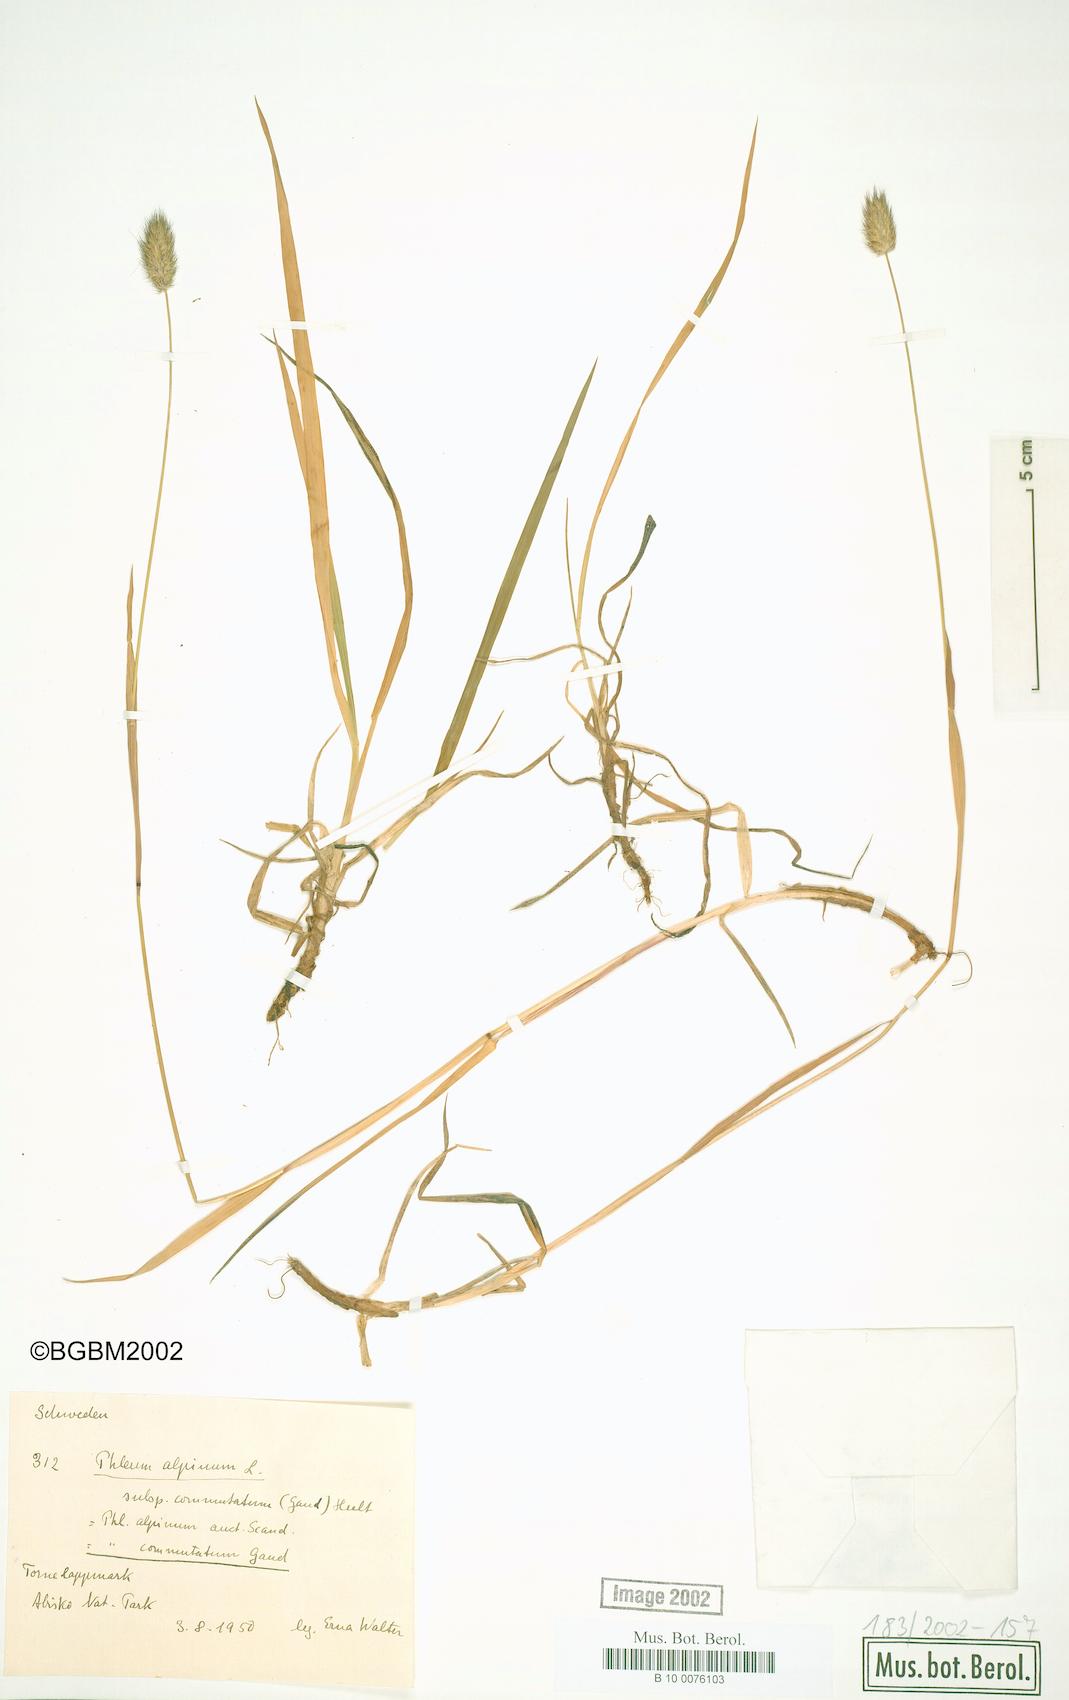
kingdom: Plantae
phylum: Tracheophyta
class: Liliopsida
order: Poales
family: Poaceae
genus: Phleum
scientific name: Phleum alpinum
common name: Alpine cat's-tail
